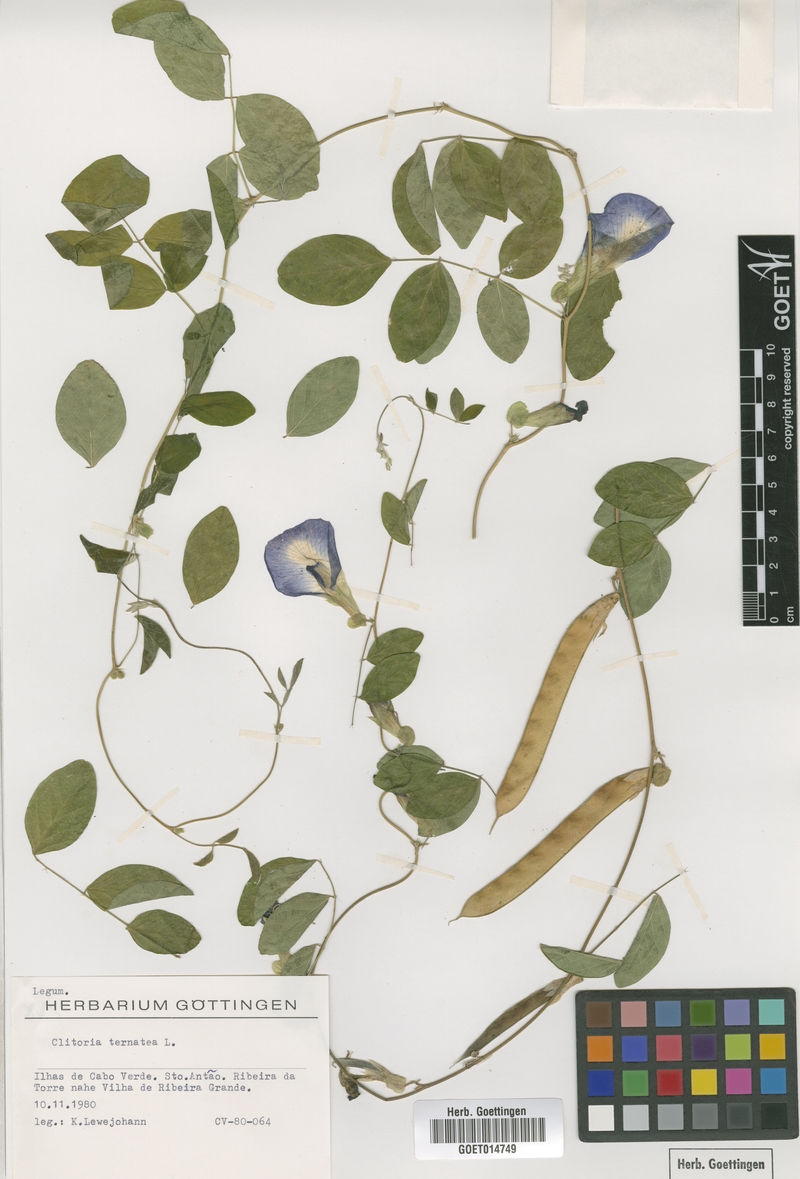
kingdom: Plantae
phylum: Tracheophyta
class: Magnoliopsida
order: Fabales
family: Fabaceae
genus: Clitoria
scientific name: Clitoria ternatea
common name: Asian pigeonwings
